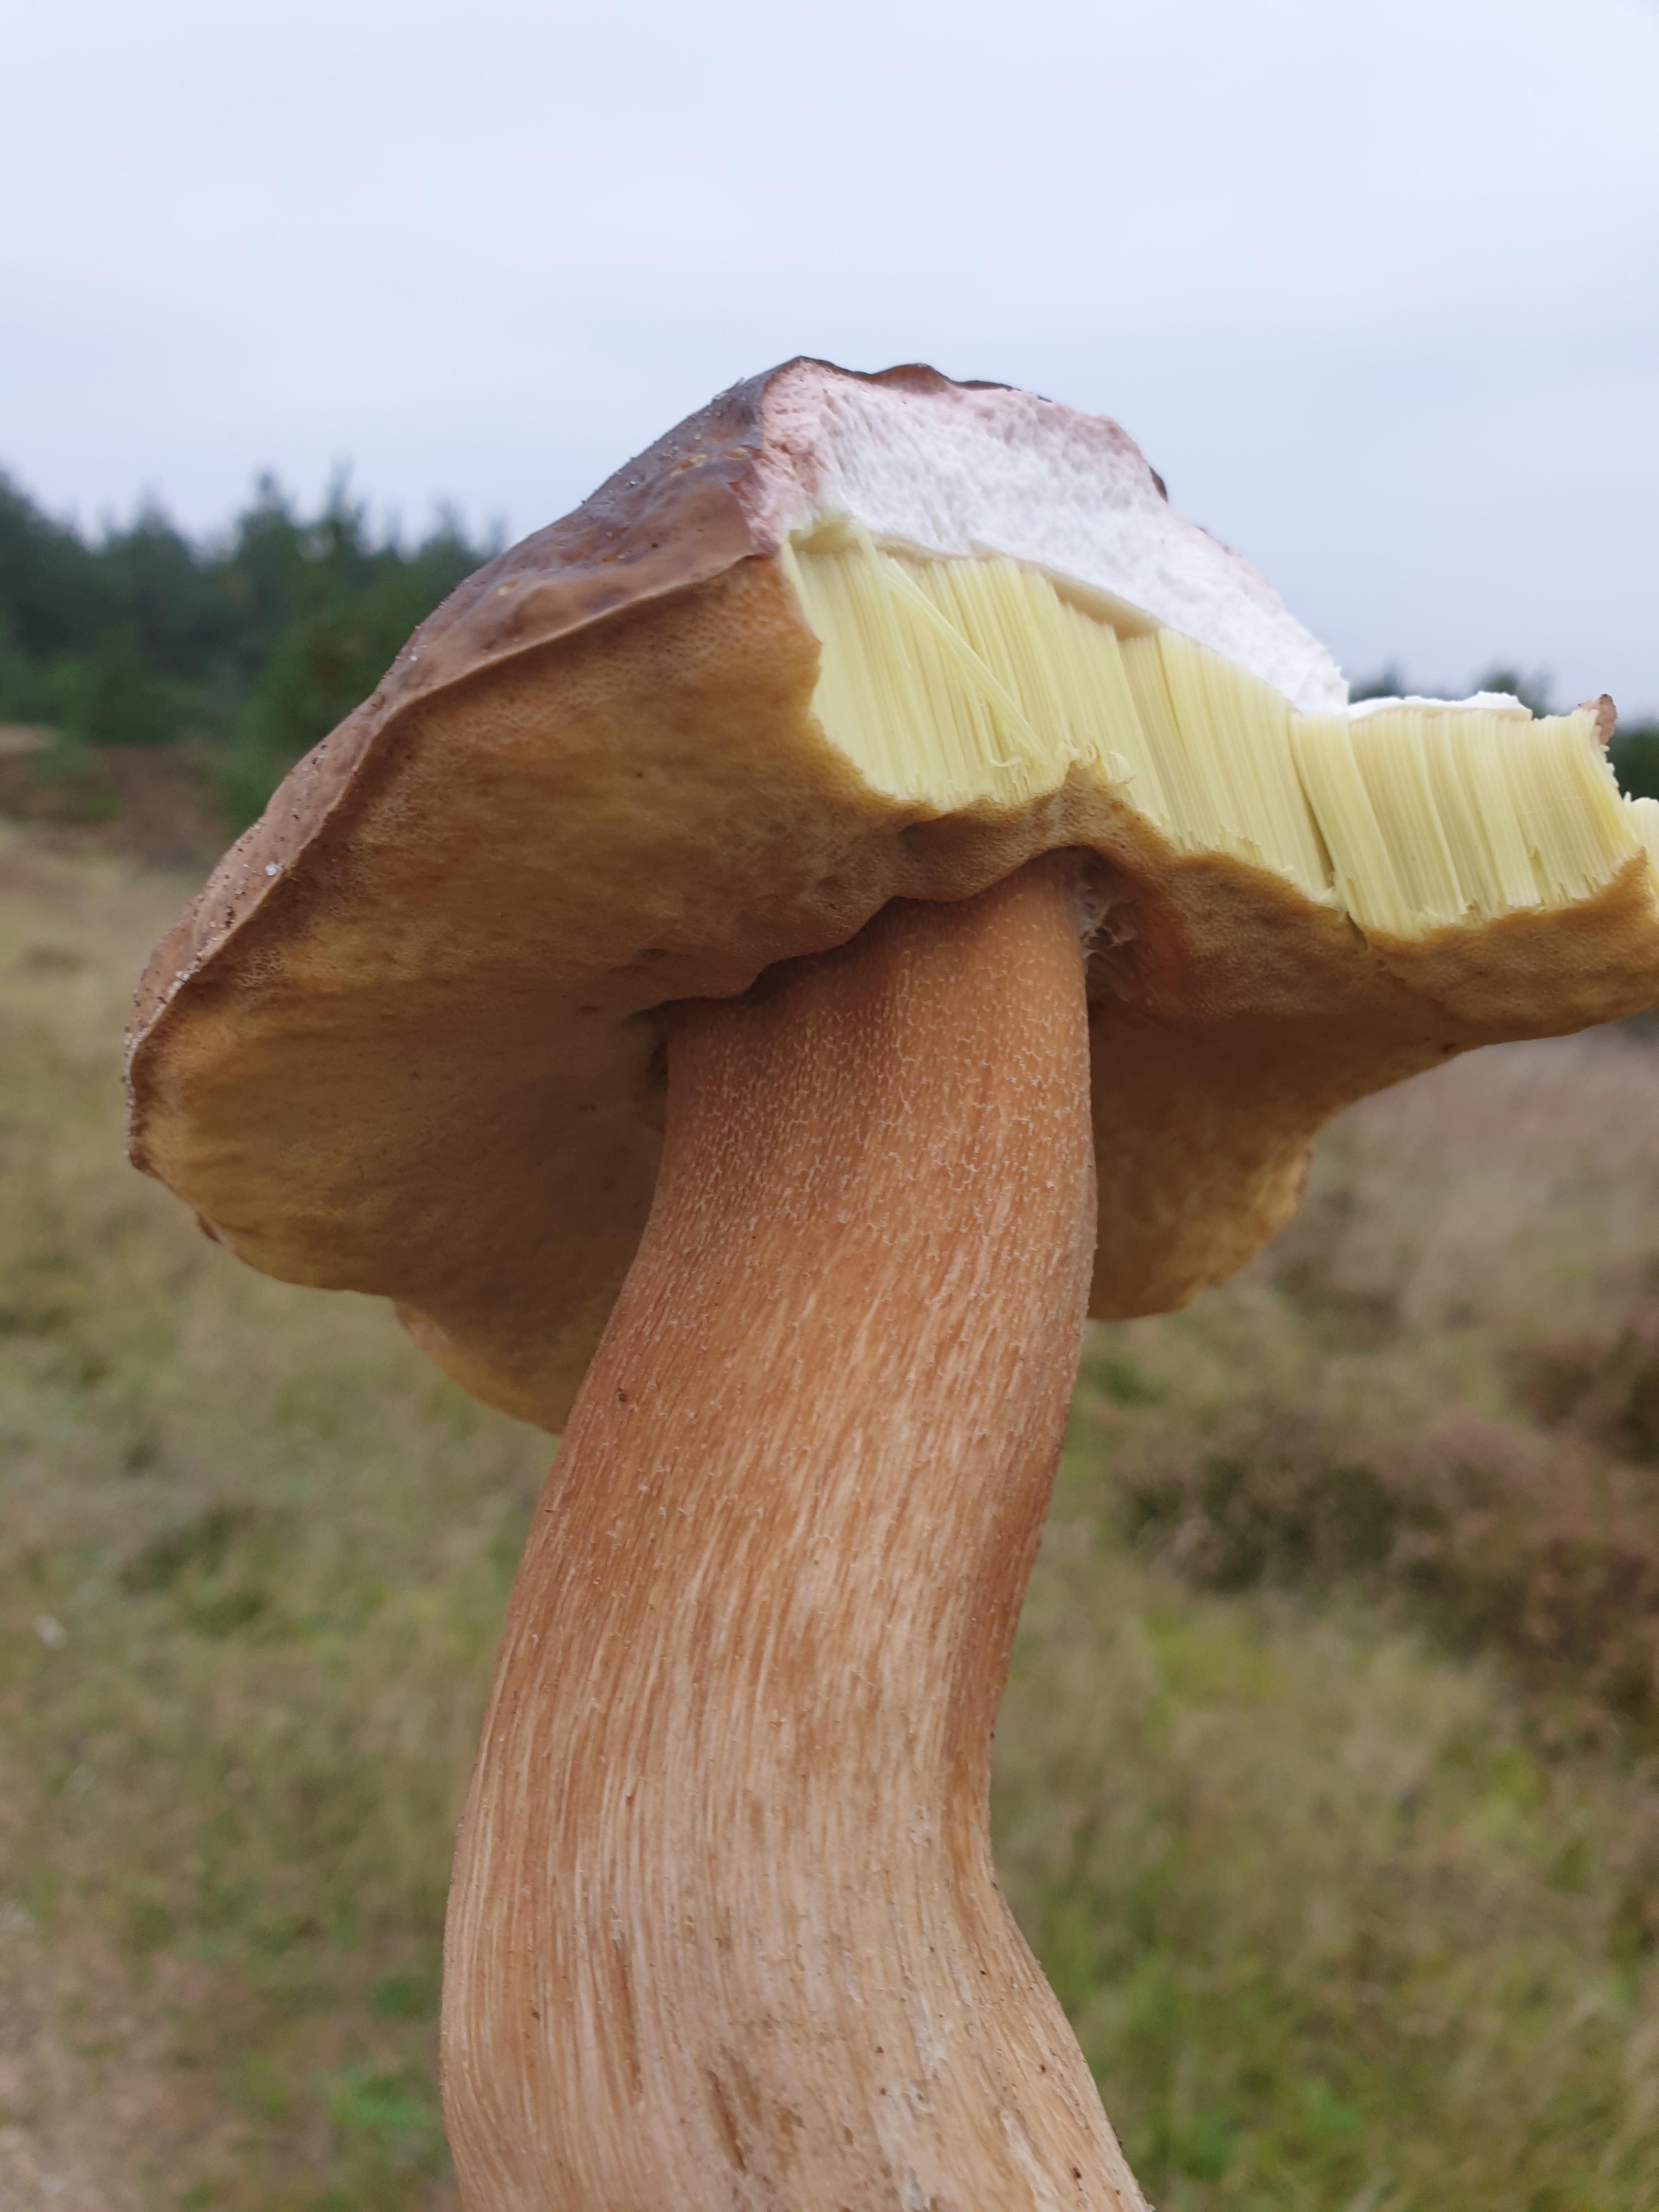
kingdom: Fungi
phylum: Basidiomycota
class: Agaricomycetes
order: Boletales
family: Boletaceae
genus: Boletus
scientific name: Boletus
